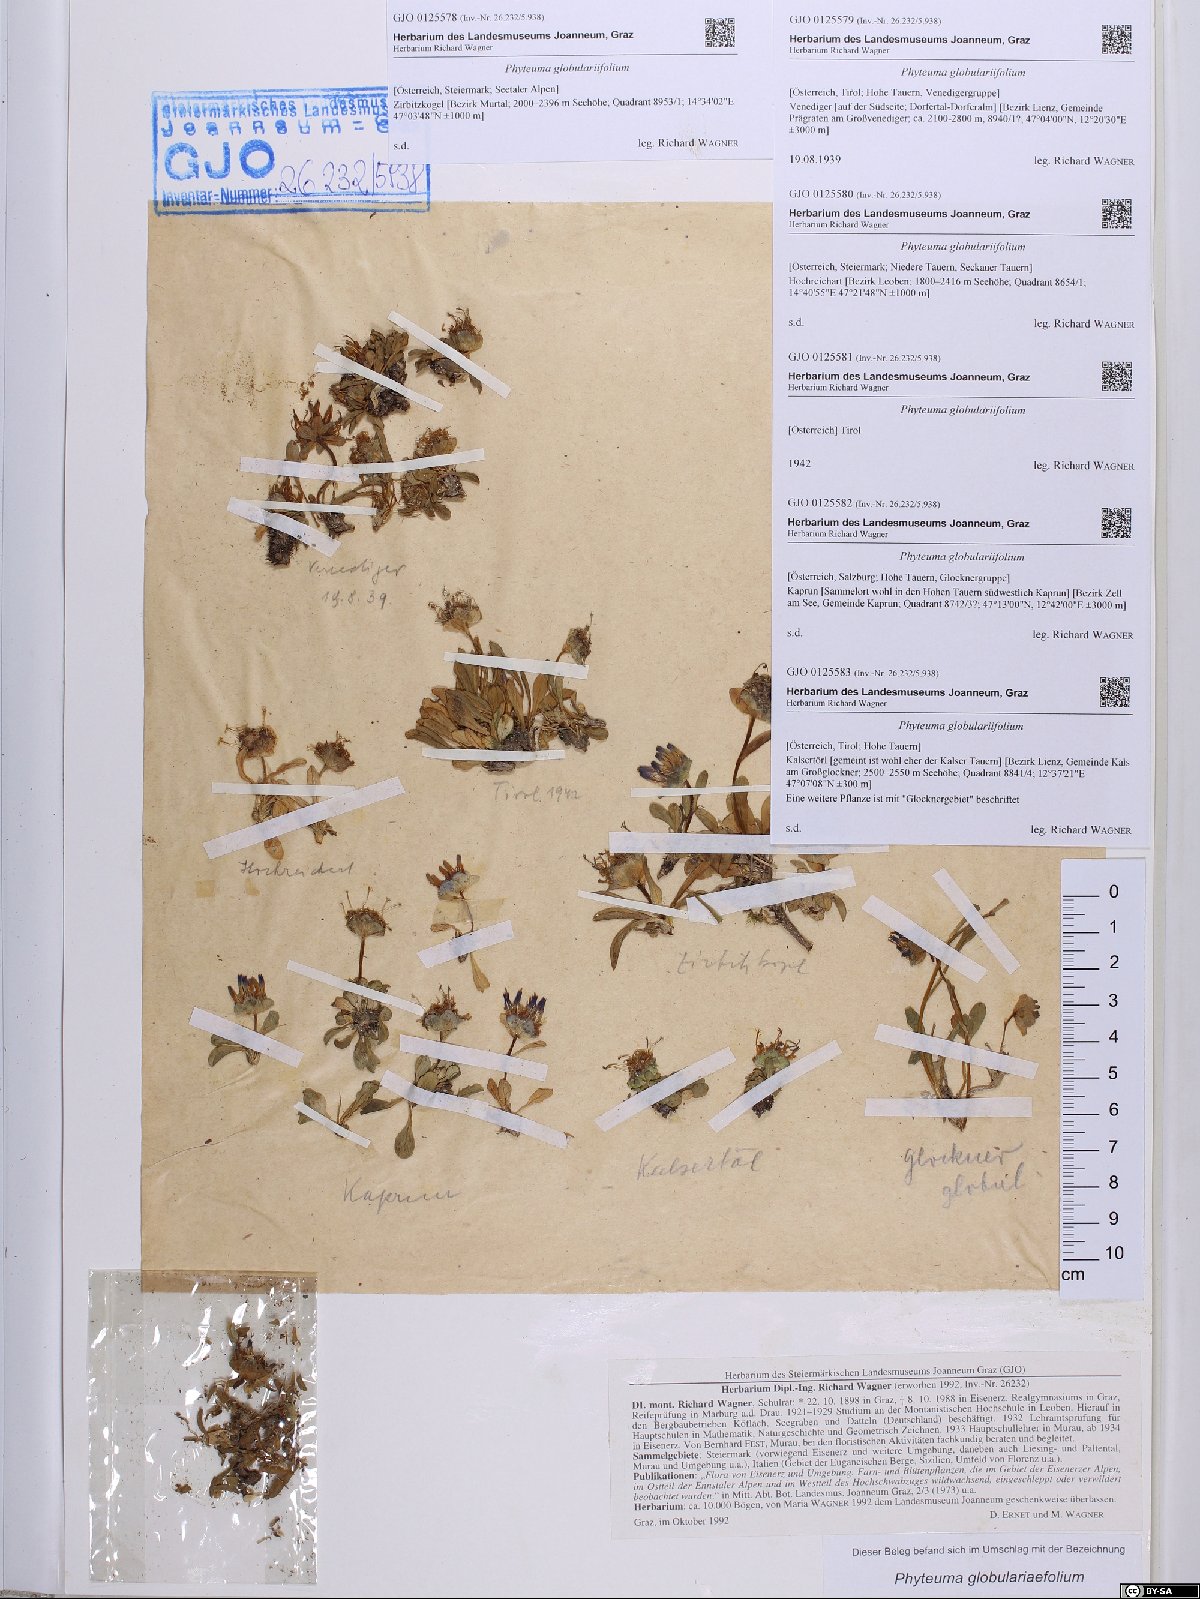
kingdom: Plantae
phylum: Tracheophyta
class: Magnoliopsida
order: Asterales
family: Campanulaceae
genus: Phyteuma
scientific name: Phyteuma globulariifolium
